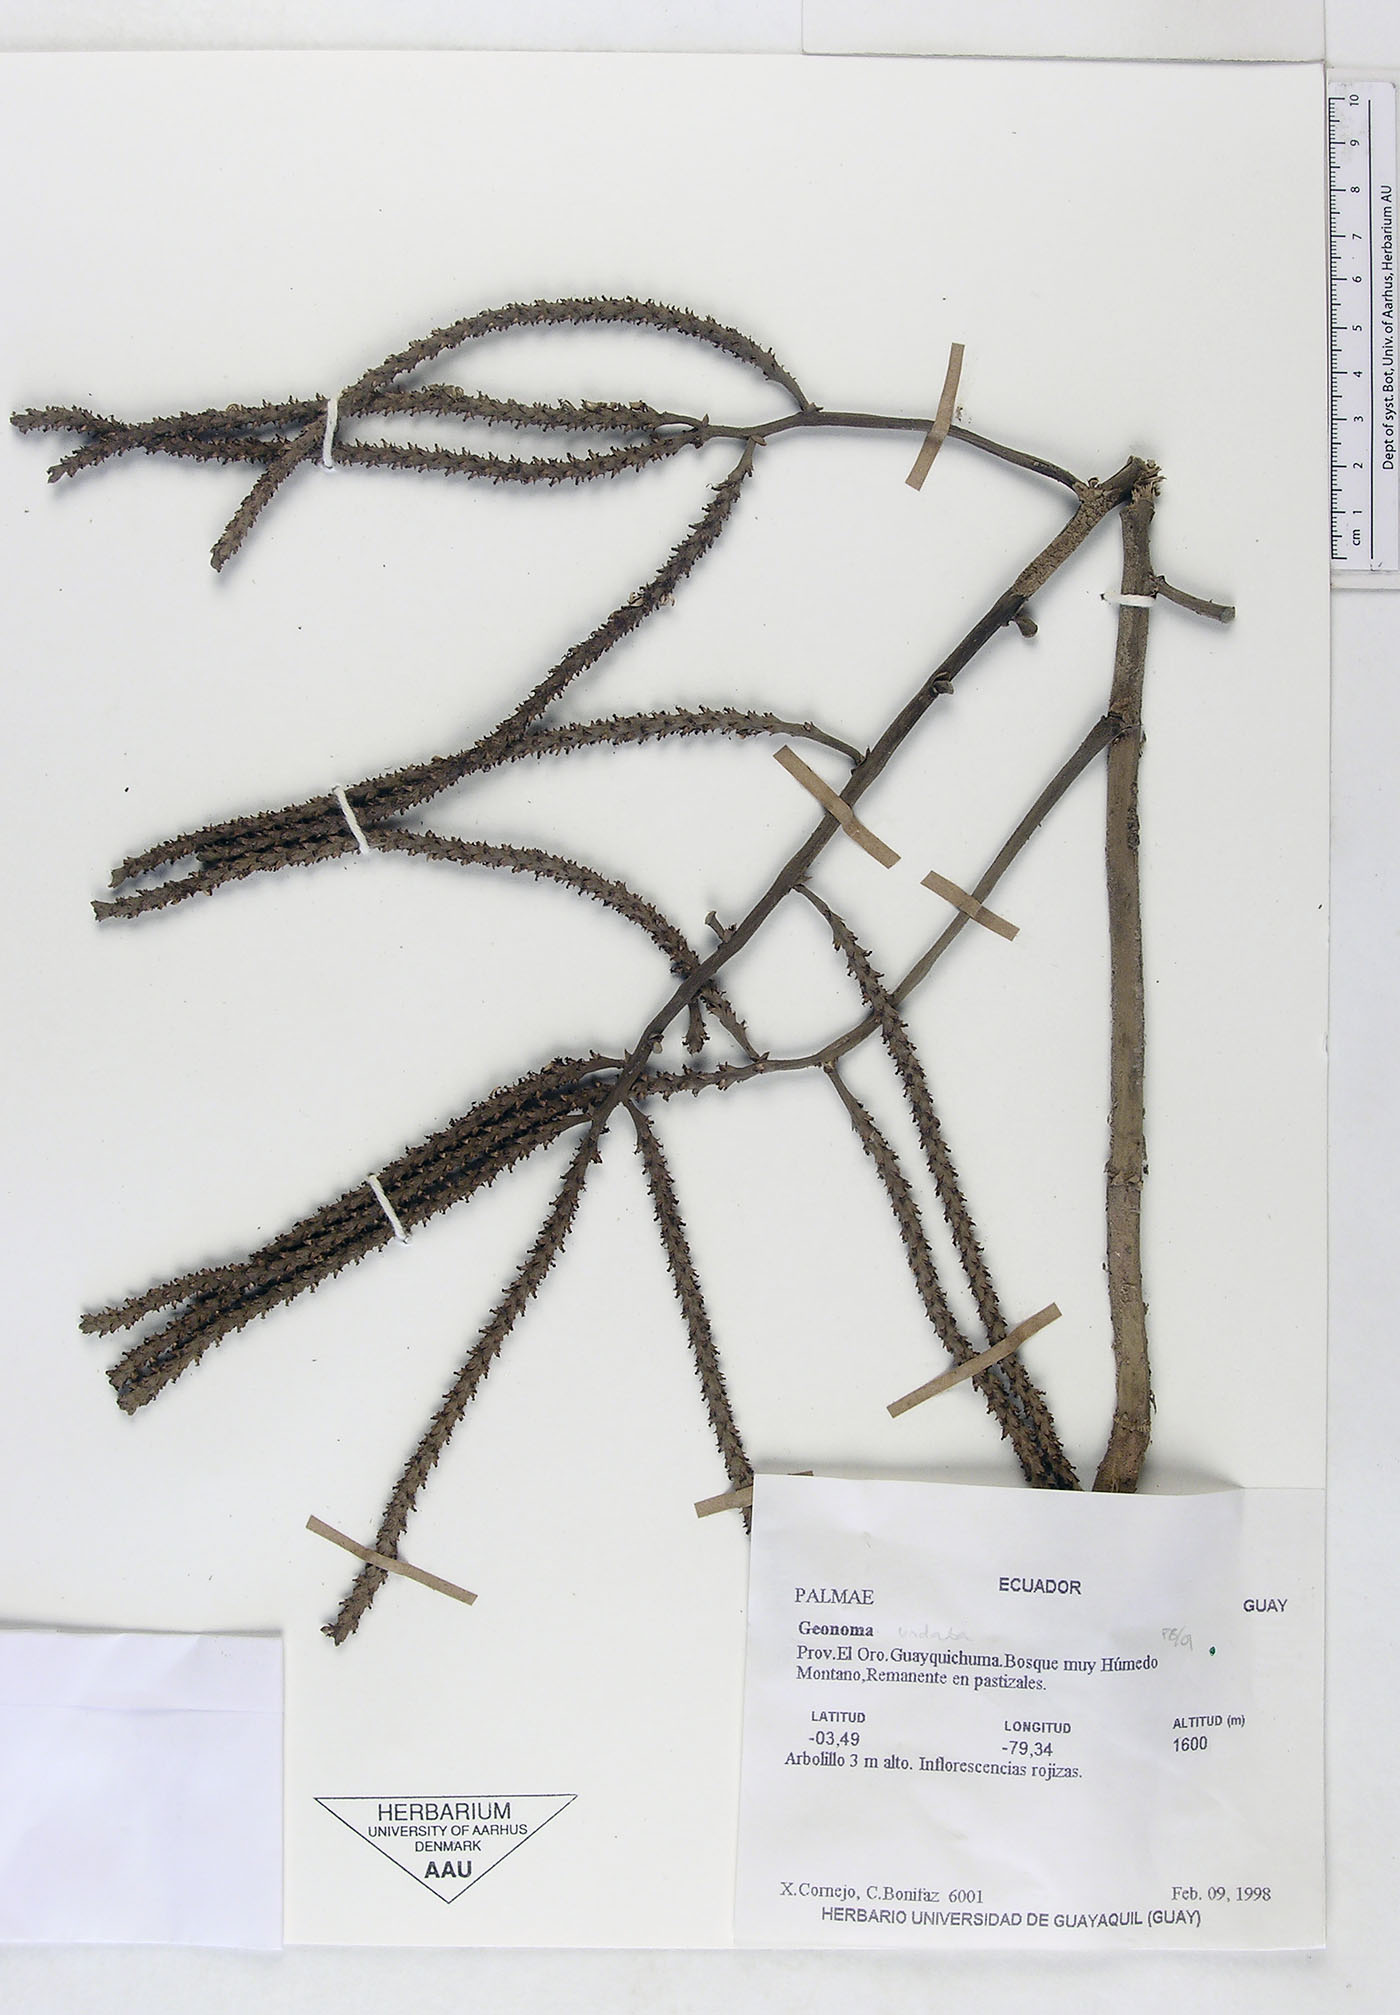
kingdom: Plantae
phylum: Tracheophyta
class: Liliopsida
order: Arecales
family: Arecaceae
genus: Geonoma
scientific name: Geonoma undata
